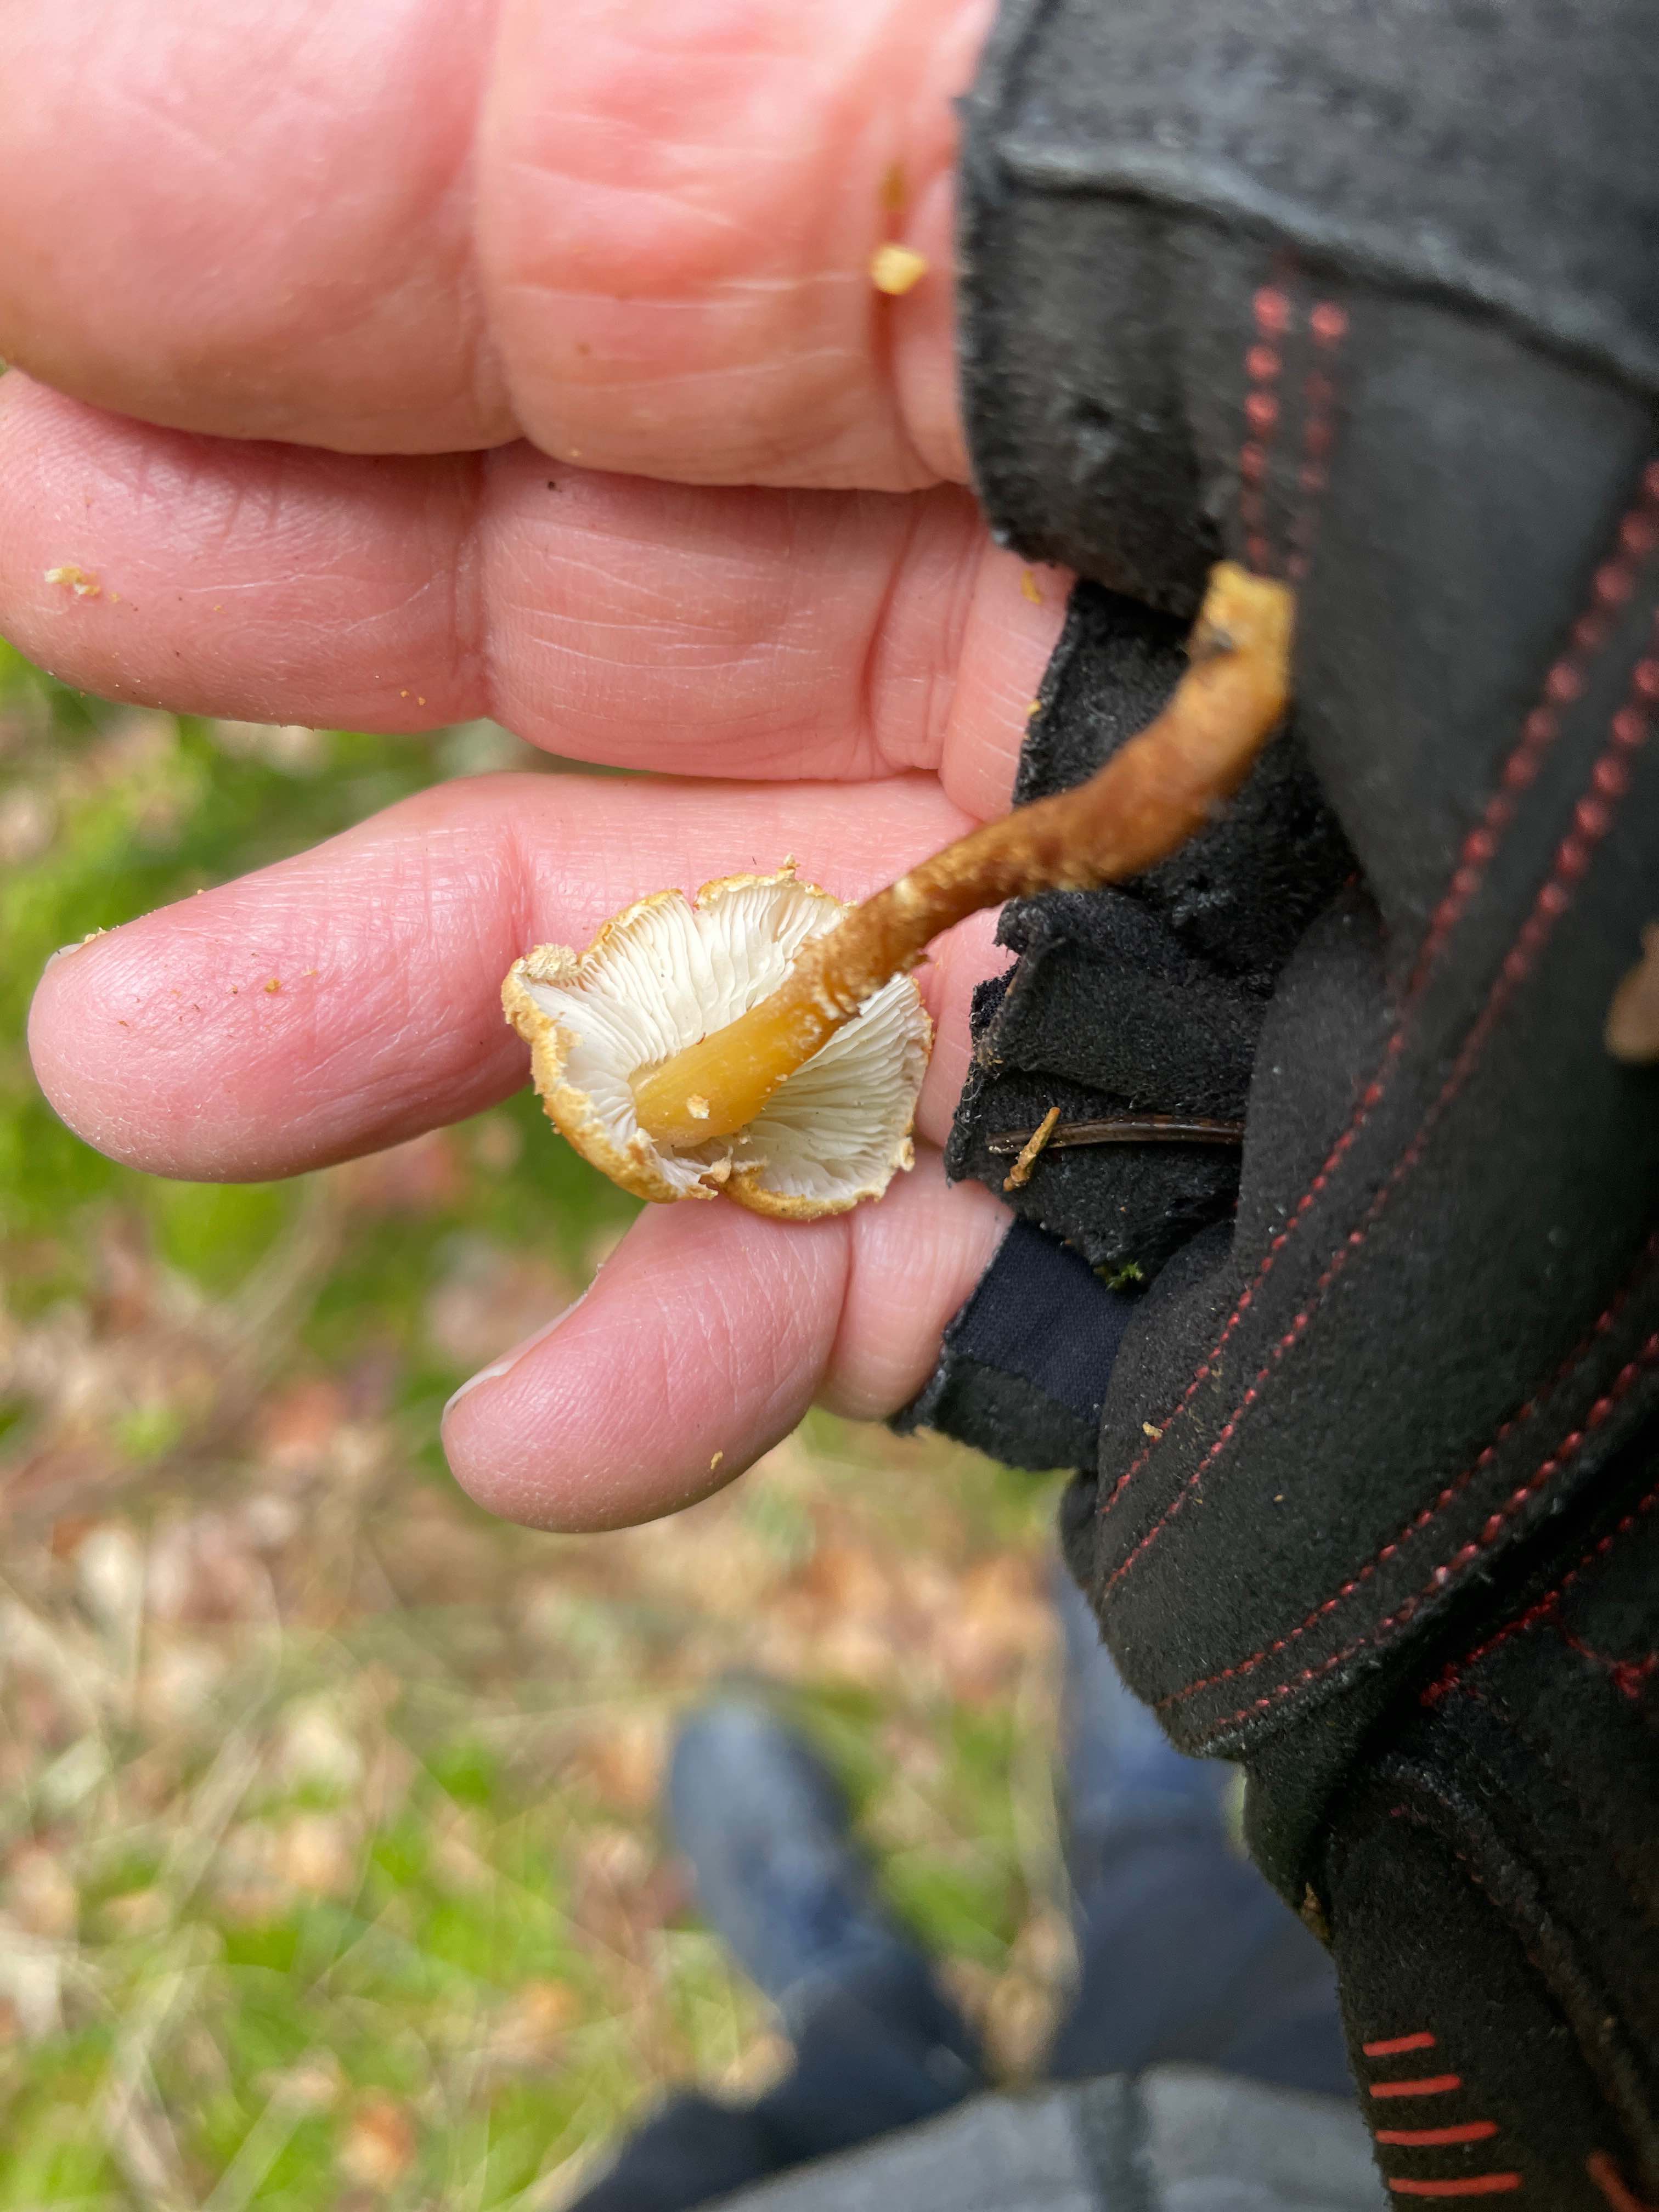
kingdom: Fungi
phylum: Basidiomycota
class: Agaricomycetes
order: Agaricales
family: Tricholomataceae
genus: Cystoderma
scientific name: Cystoderma amianthinum
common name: okkergul grynhat
